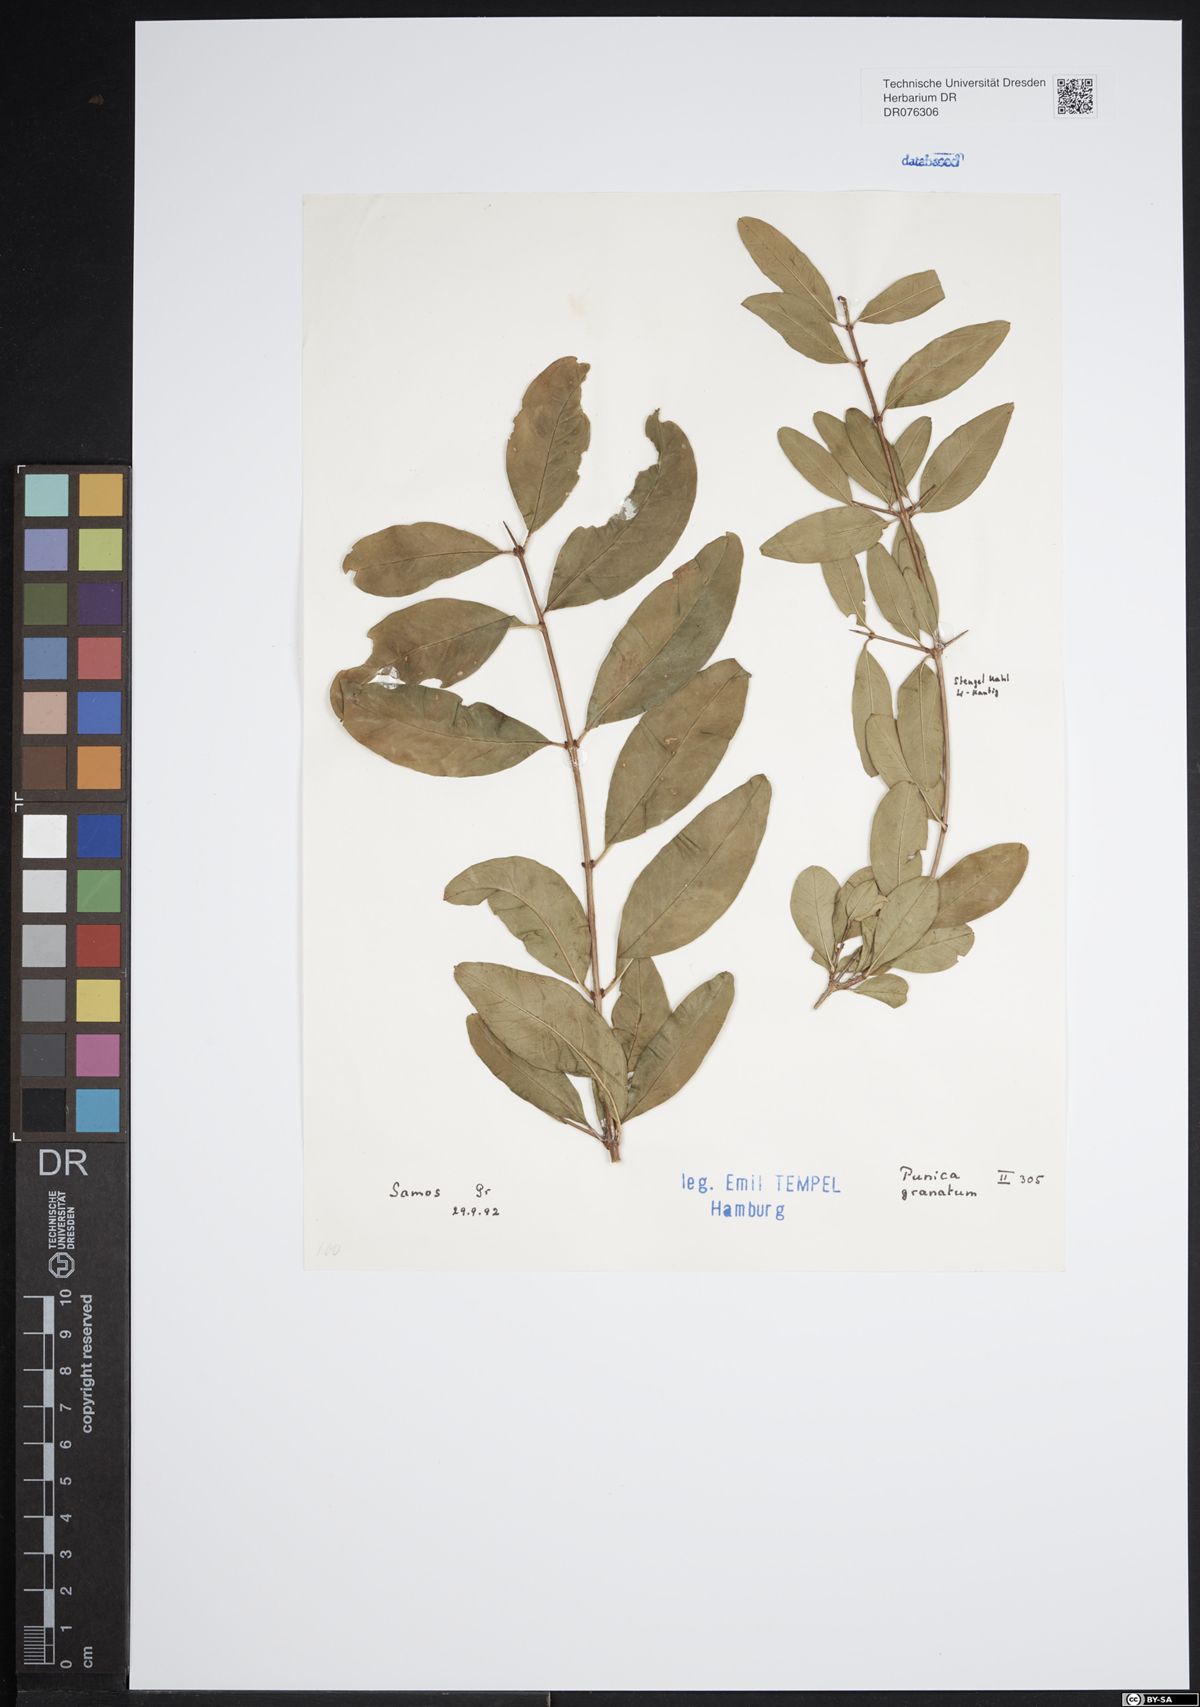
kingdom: Plantae
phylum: Tracheophyta
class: Magnoliopsida
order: Myrtales
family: Lythraceae
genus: Punica
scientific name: Punica granatum
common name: Pomegranate
